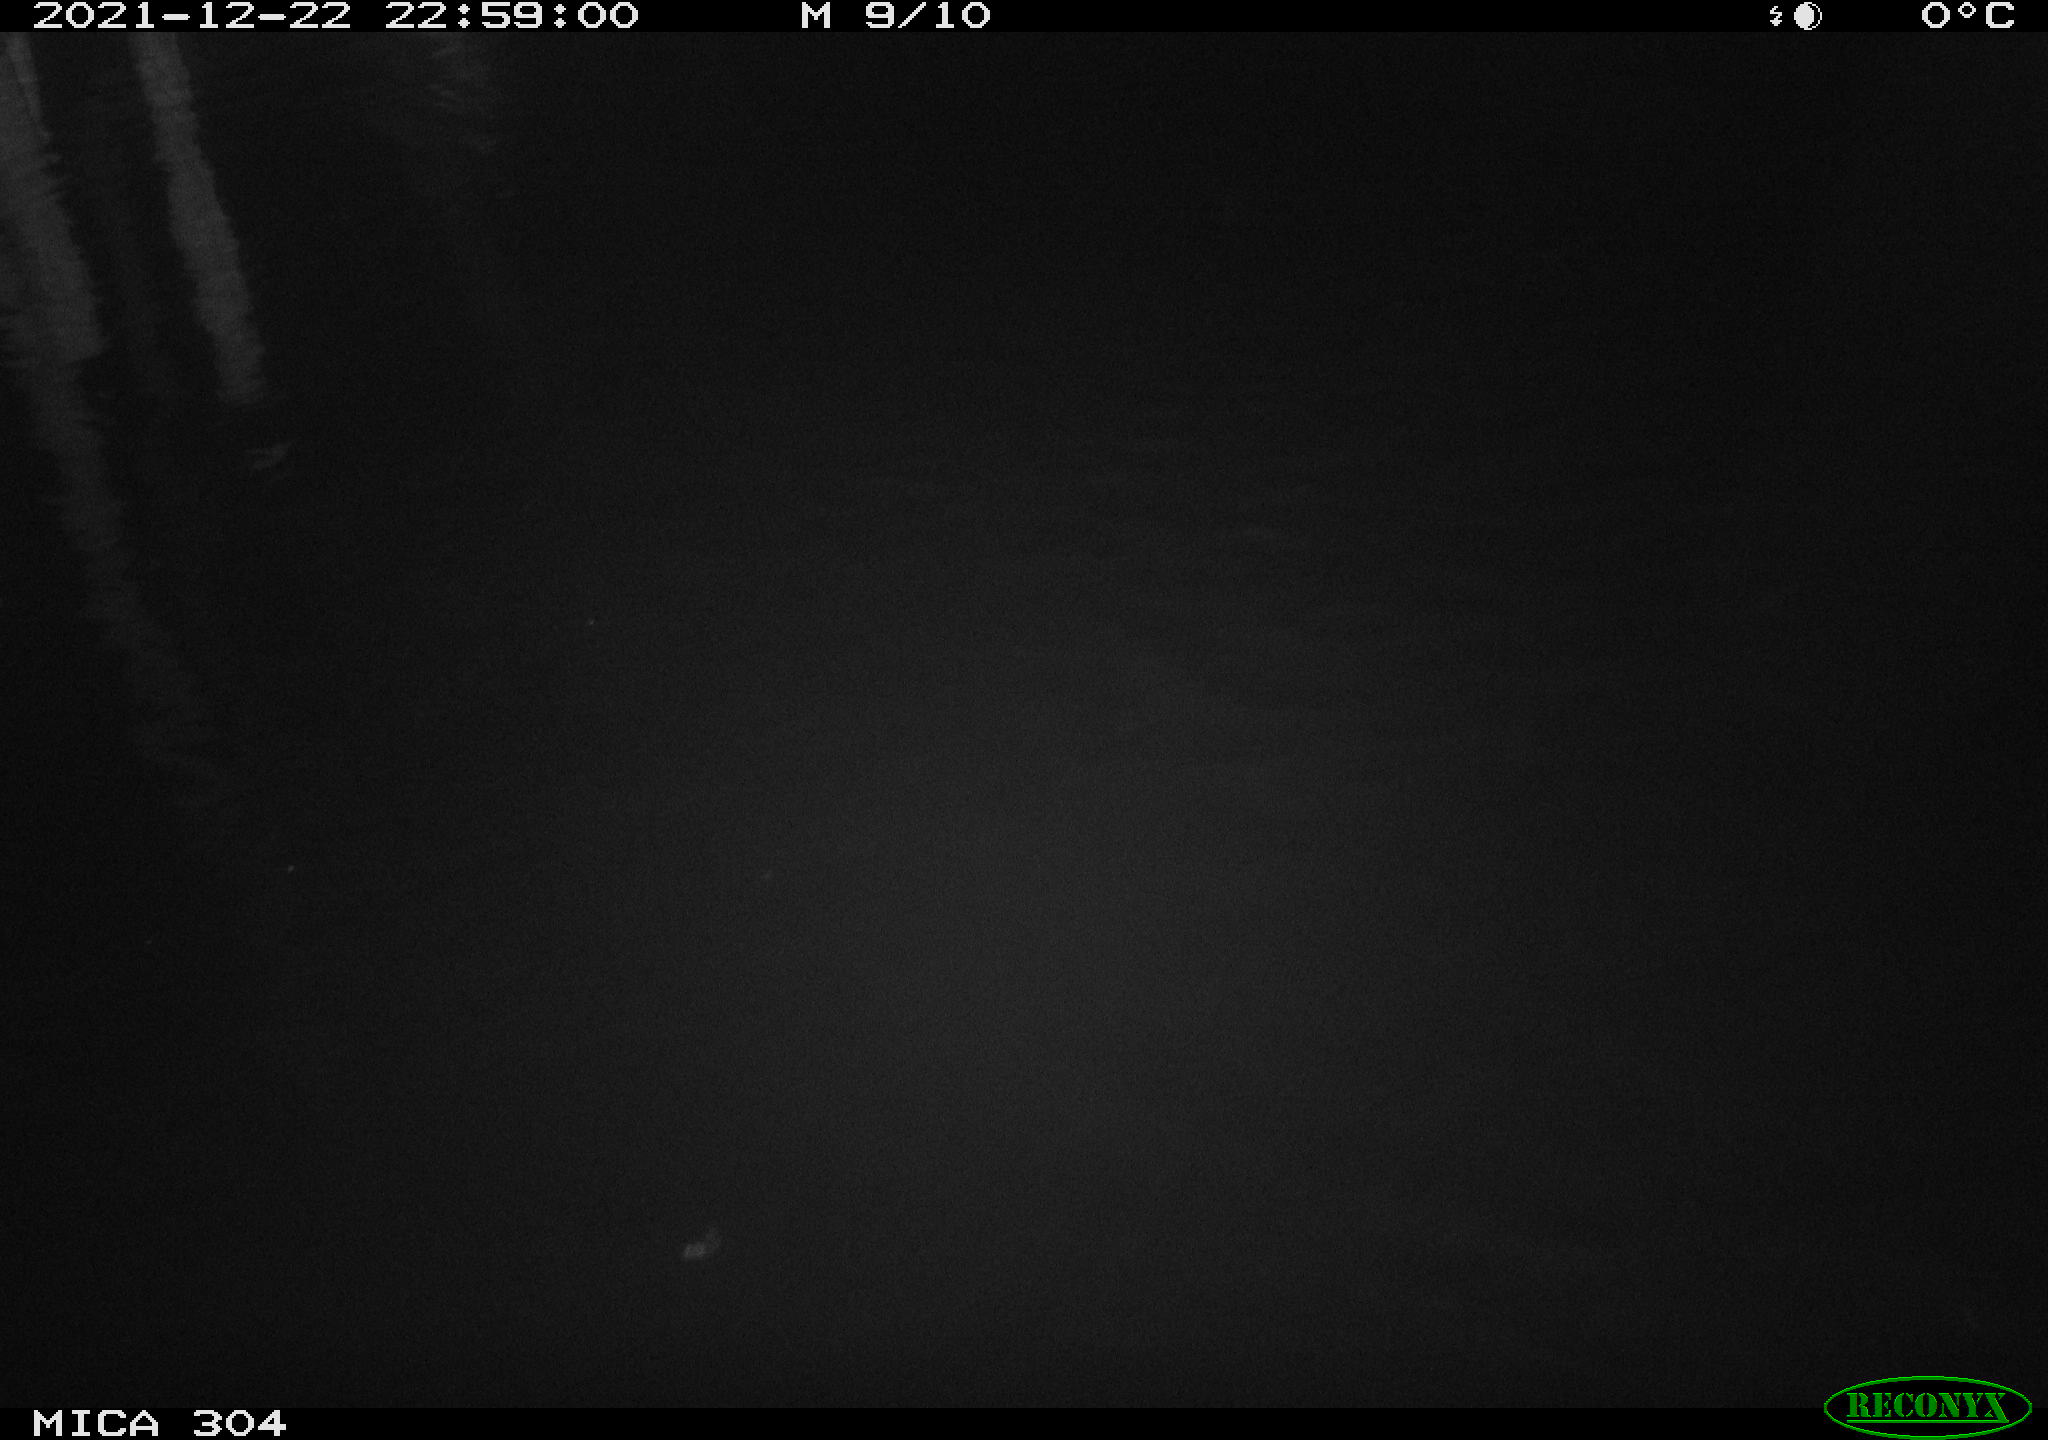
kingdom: Animalia
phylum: Chordata
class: Aves
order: Anseriformes
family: Anatidae
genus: Anas
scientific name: Anas
